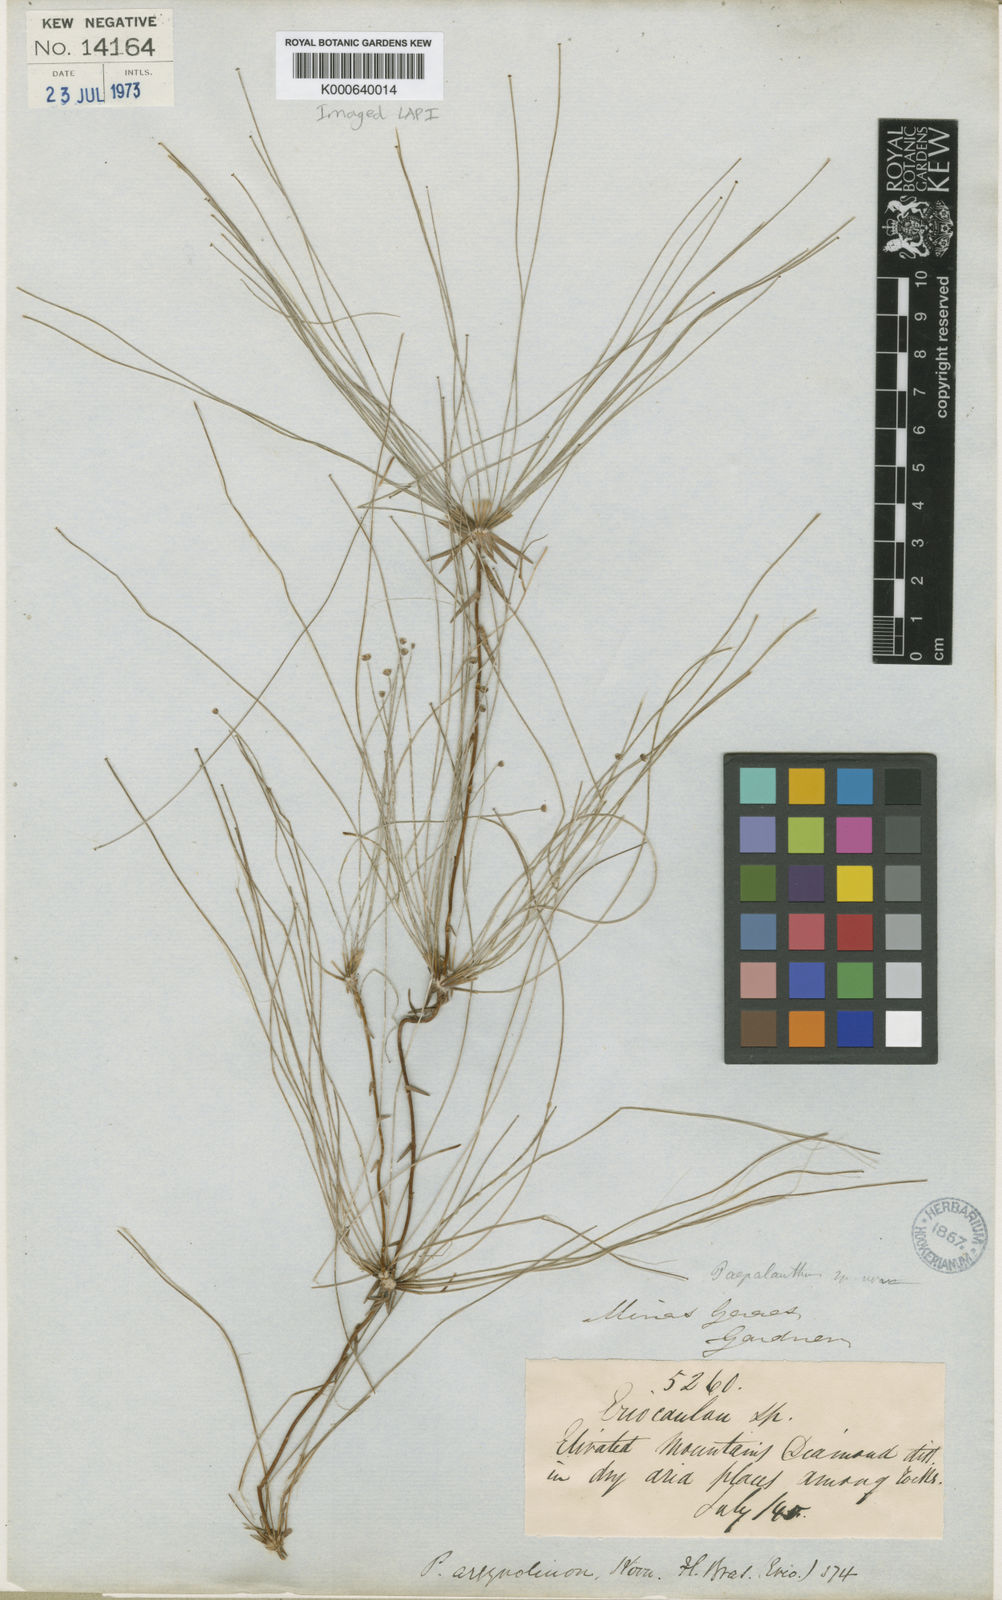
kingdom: Plantae
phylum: Tracheophyta
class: Liliopsida
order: Poales
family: Eriocaulaceae
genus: Paepalanthus
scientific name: Paepalanthus
